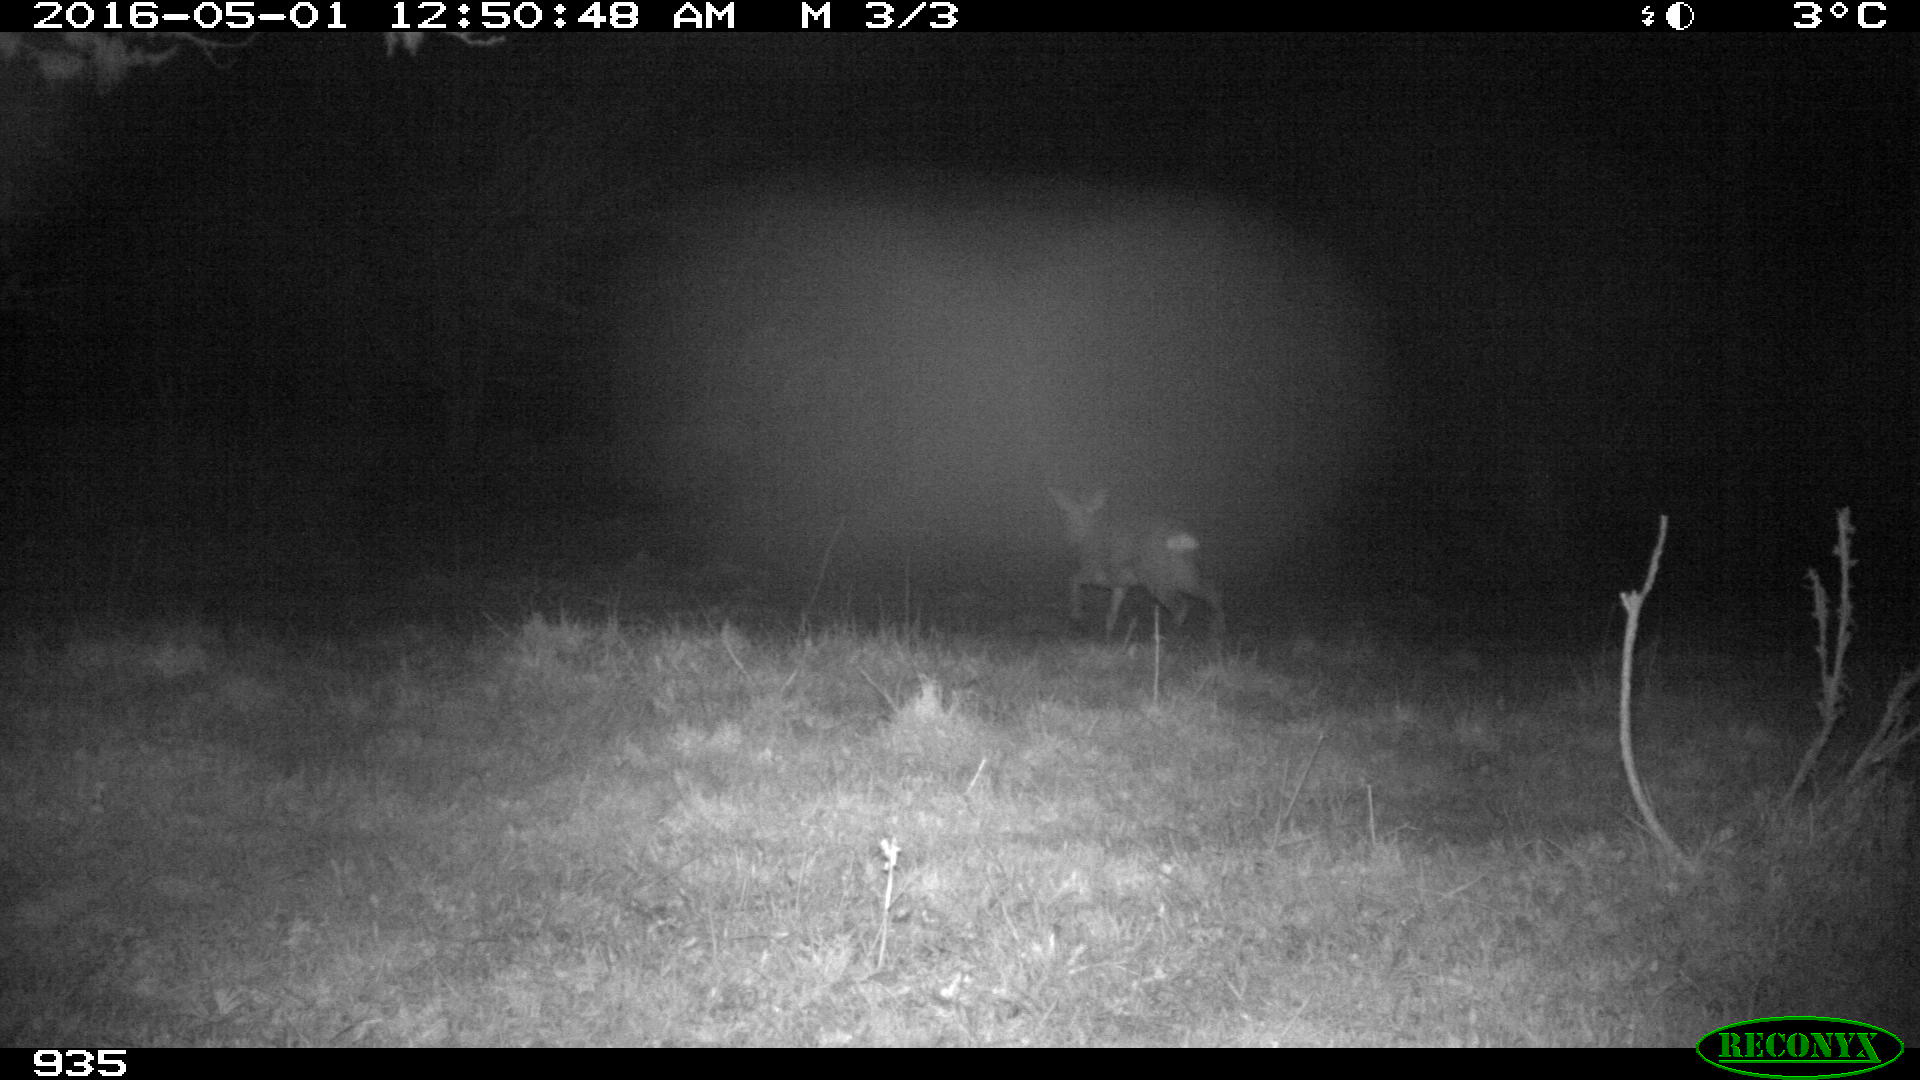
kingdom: Animalia
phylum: Chordata
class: Mammalia
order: Artiodactyla
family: Cervidae
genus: Capreolus
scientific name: Capreolus capreolus
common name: Western roe deer
